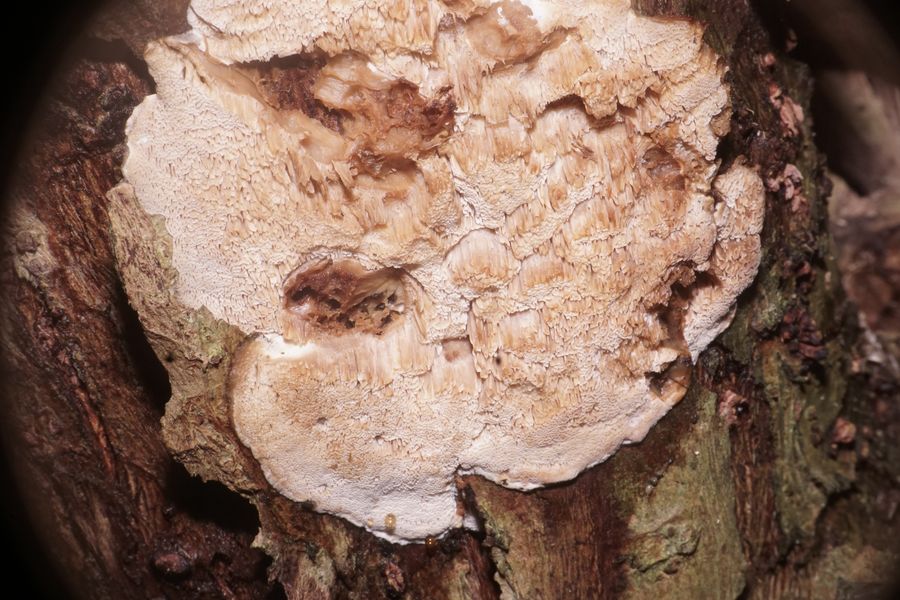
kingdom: Fungi
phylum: Basidiomycota
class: Agaricomycetes
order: Polyporales
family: Phanerochaetaceae
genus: Bjerkandera
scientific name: Bjerkandera fumosa
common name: grågul sodporesvamp
